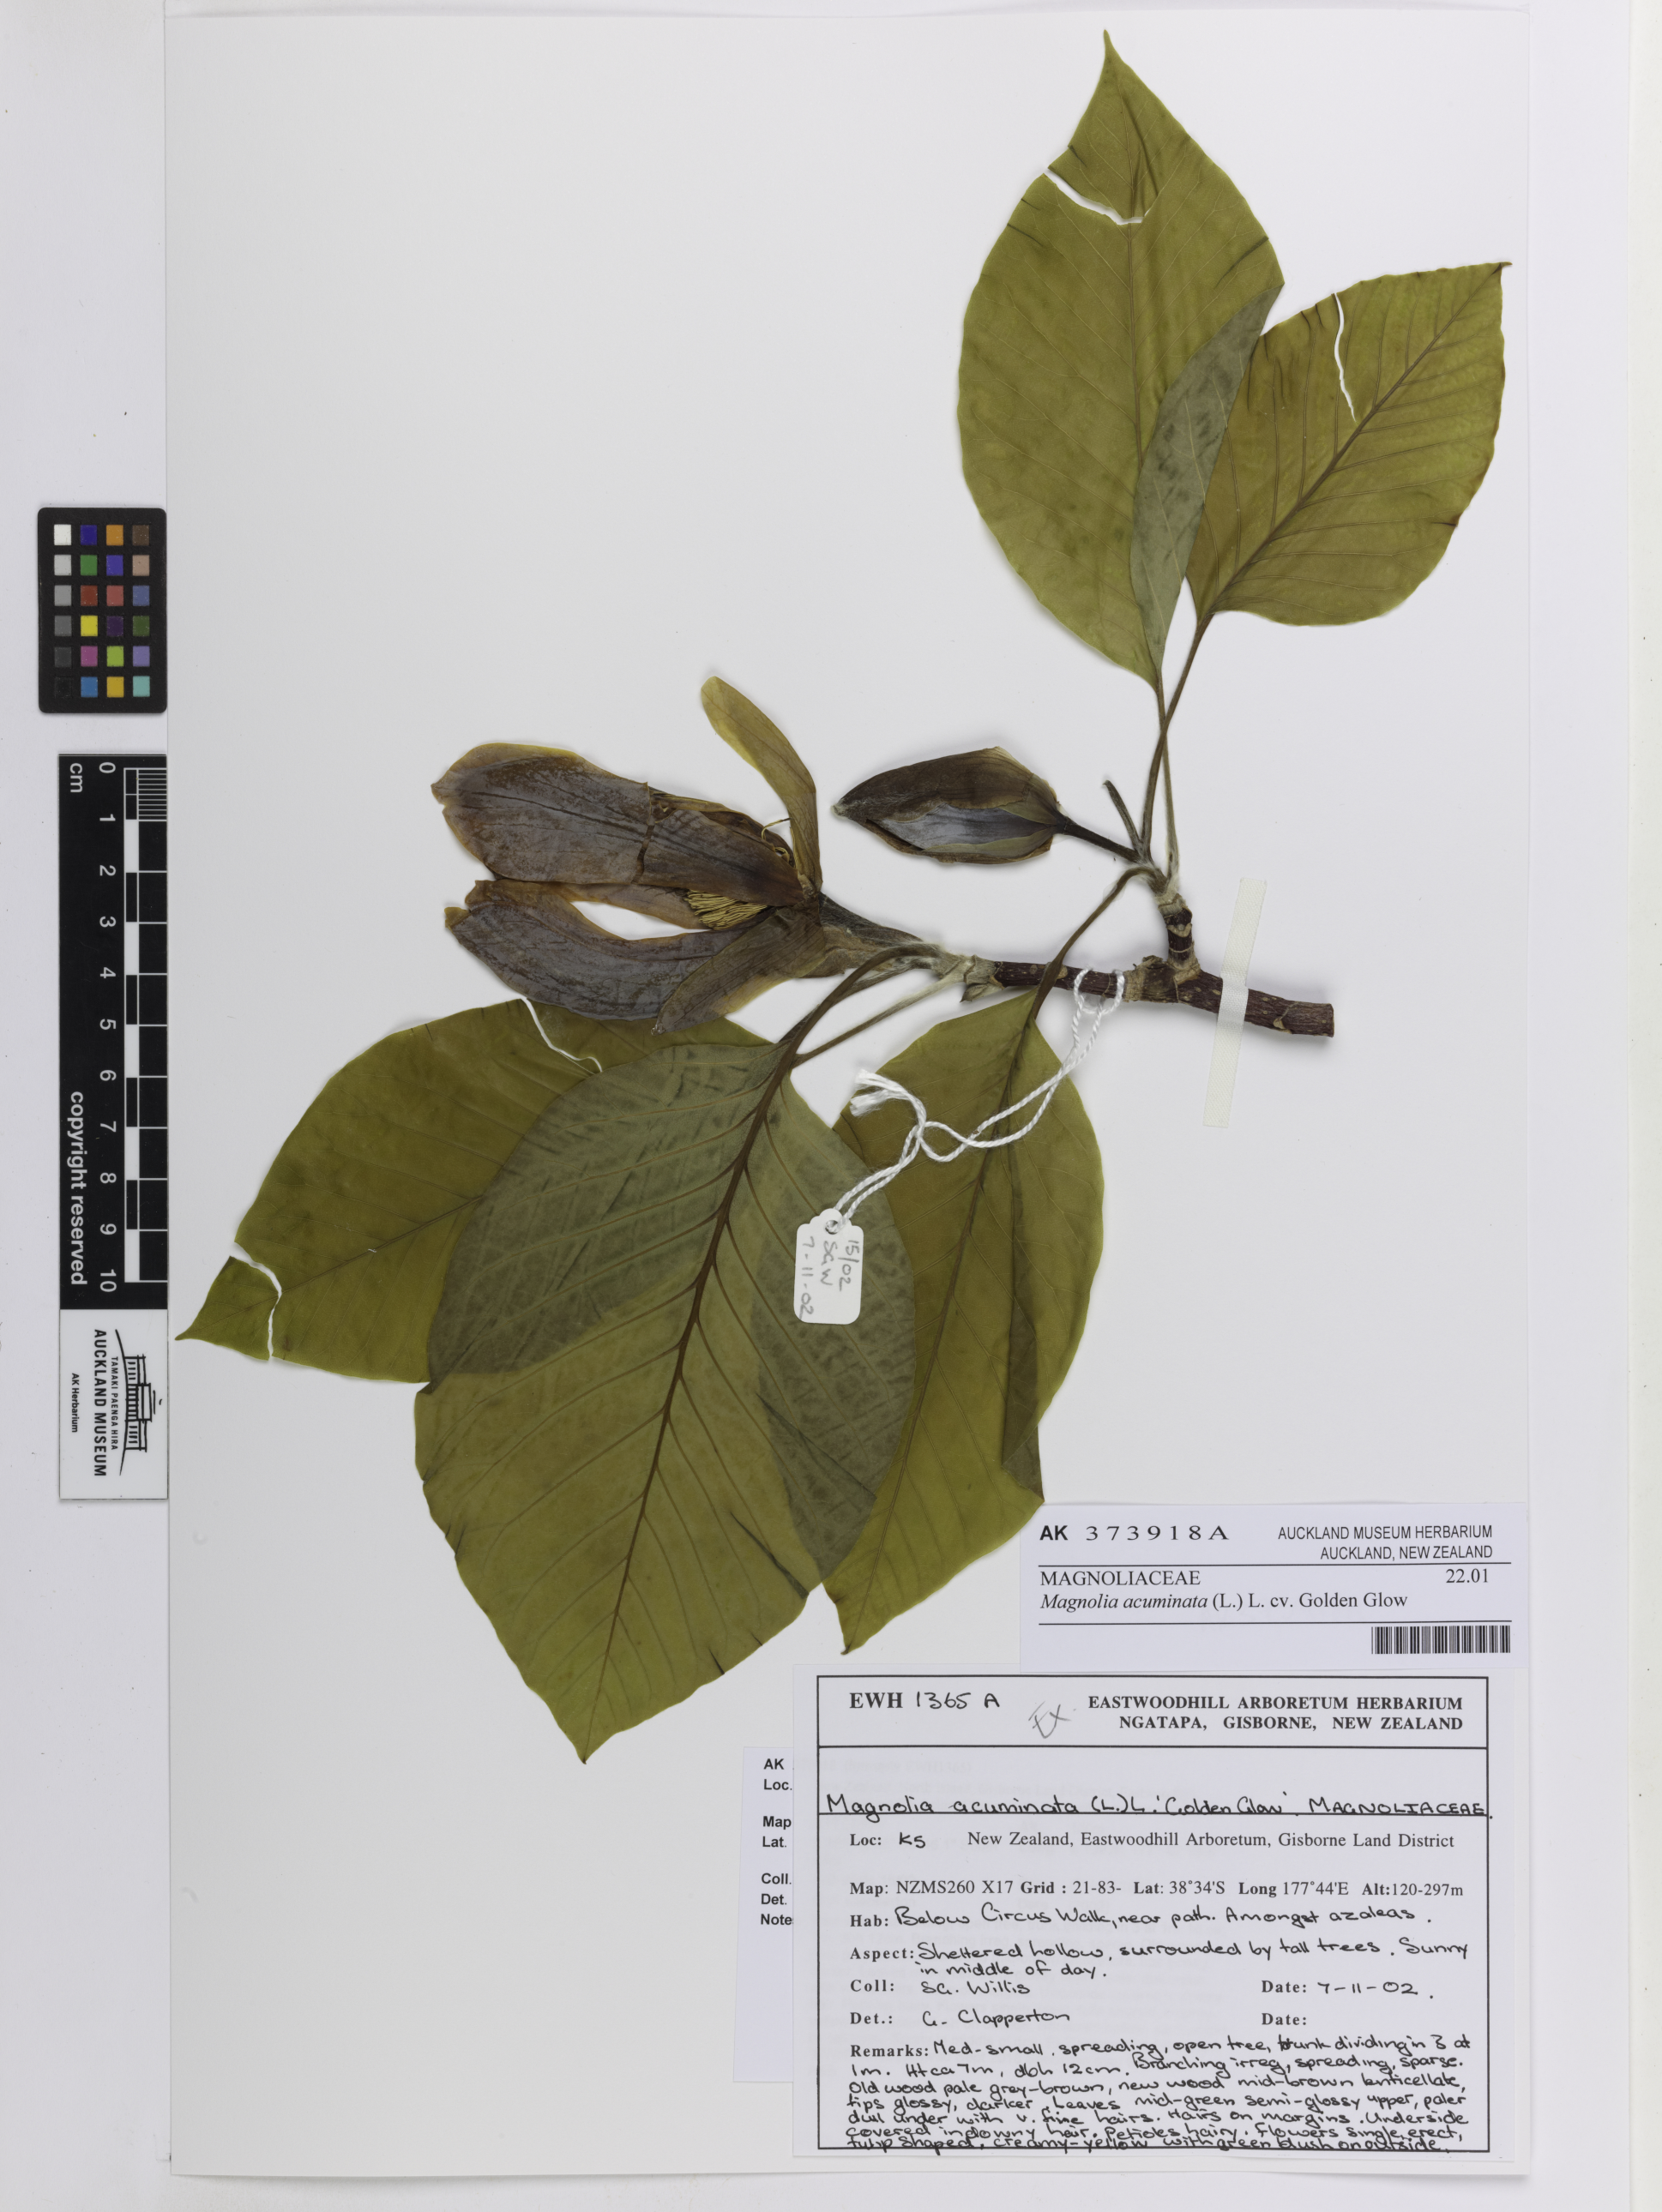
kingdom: Plantae
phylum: Tracheophyta
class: Magnoliopsida
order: Magnoliales
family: Magnoliaceae
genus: Magnolia
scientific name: Magnolia acuminata
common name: Cucumber magnolia
